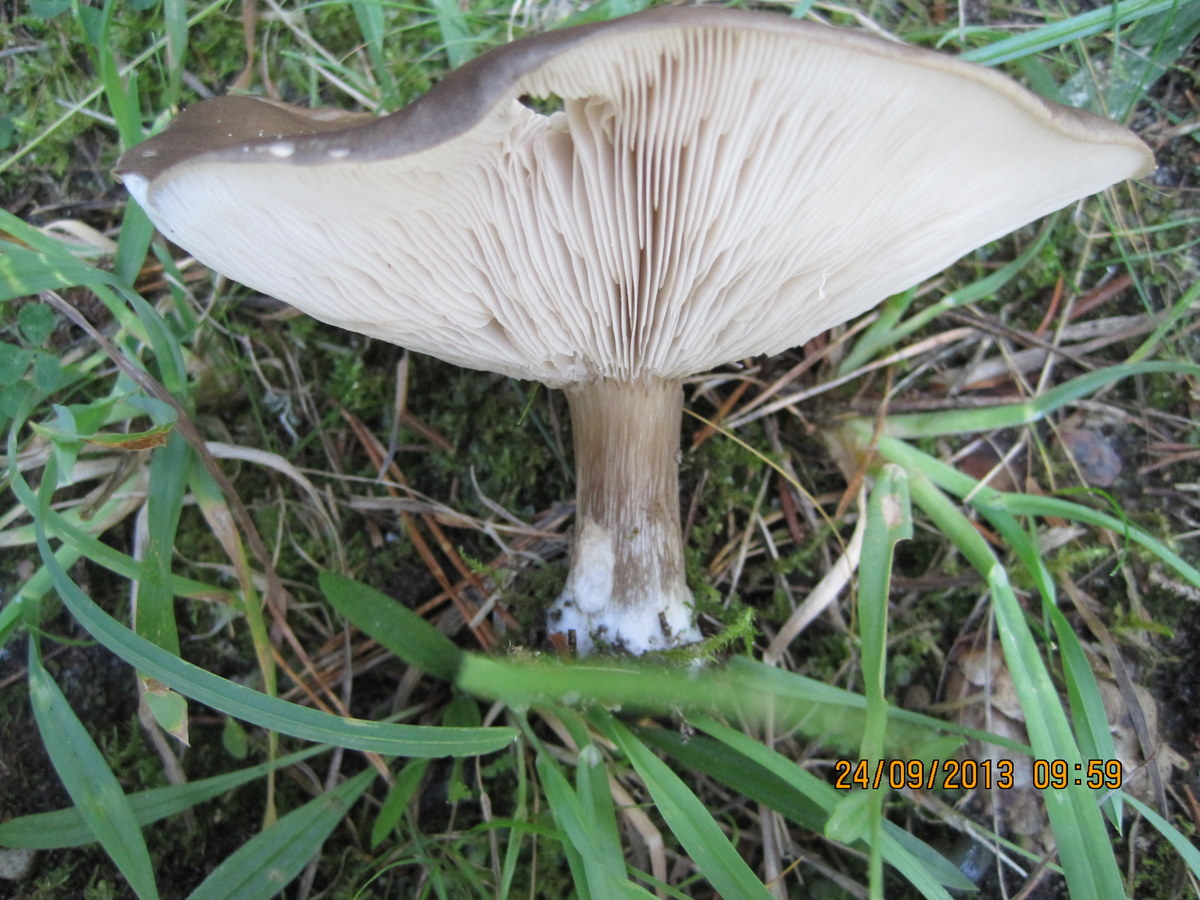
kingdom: Fungi
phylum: Basidiomycota
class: Agaricomycetes
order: Agaricales
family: Tricholomataceae
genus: Melanoleuca
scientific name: Melanoleuca
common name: munkehat
